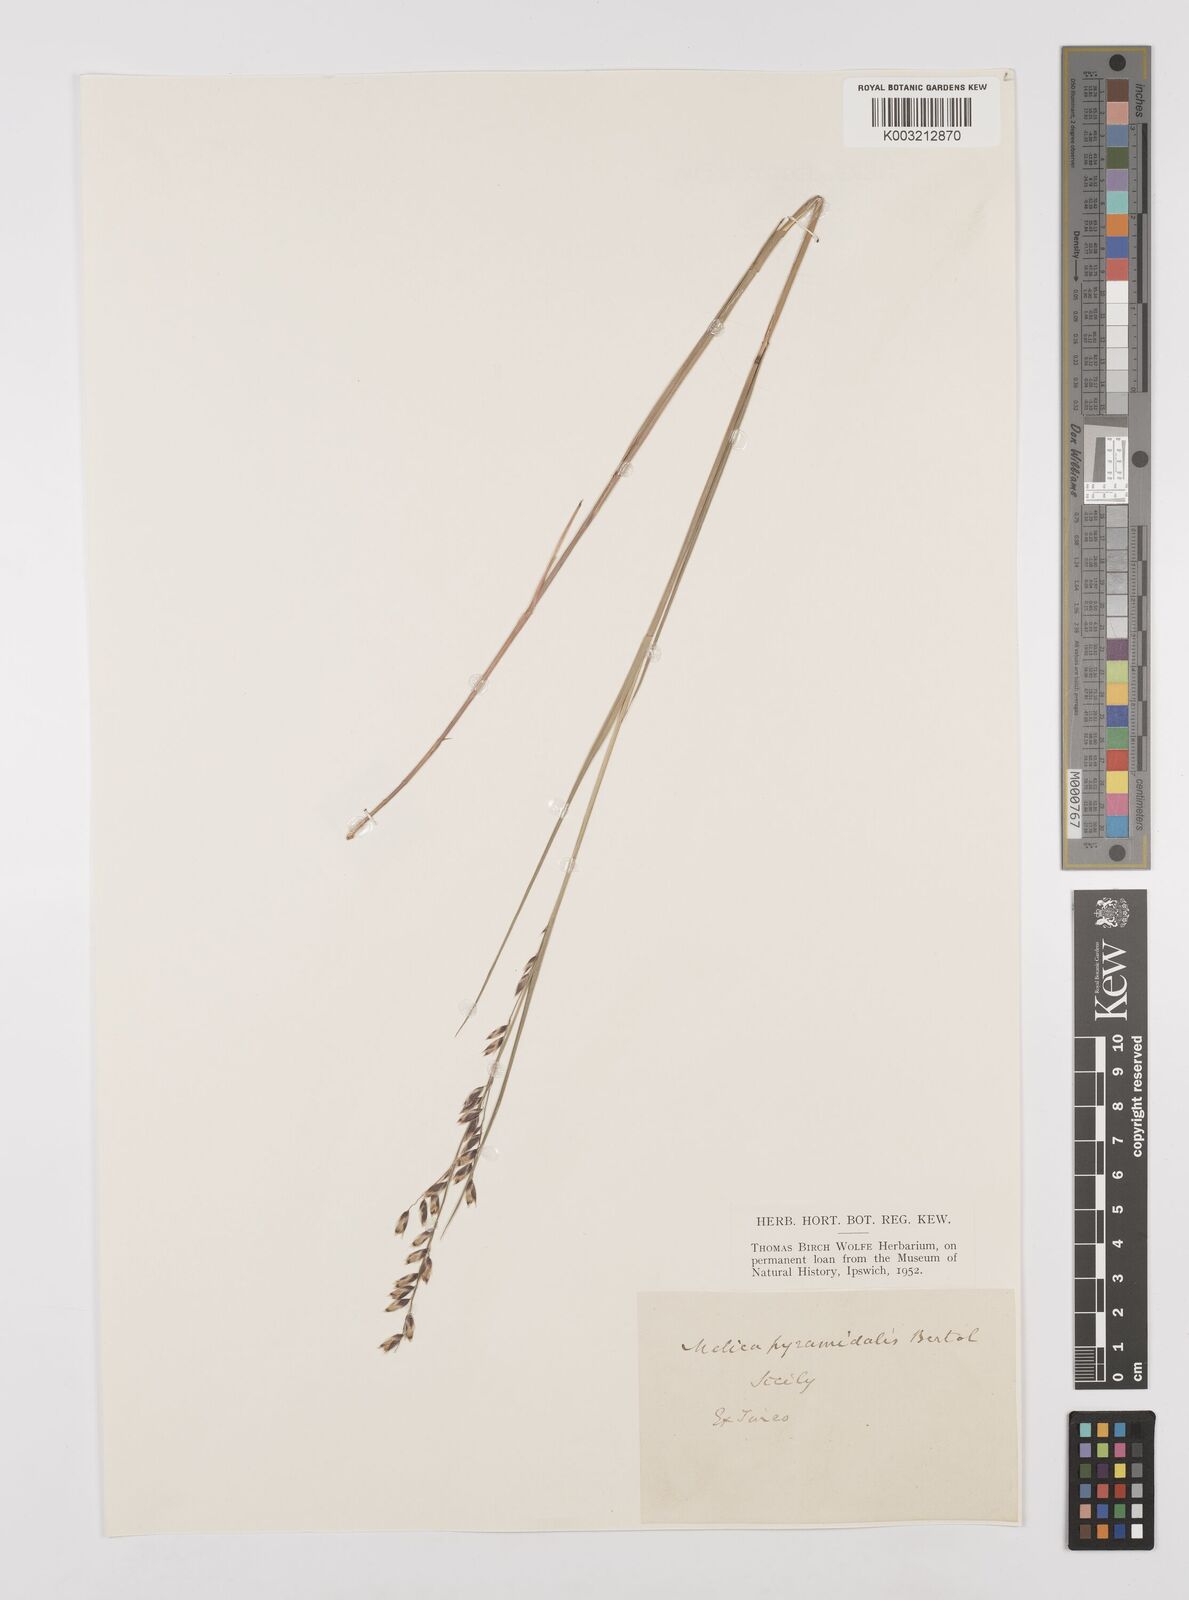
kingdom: Plantae
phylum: Tracheophyta
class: Liliopsida
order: Poales
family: Poaceae
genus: Melica
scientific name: Melica minuta
